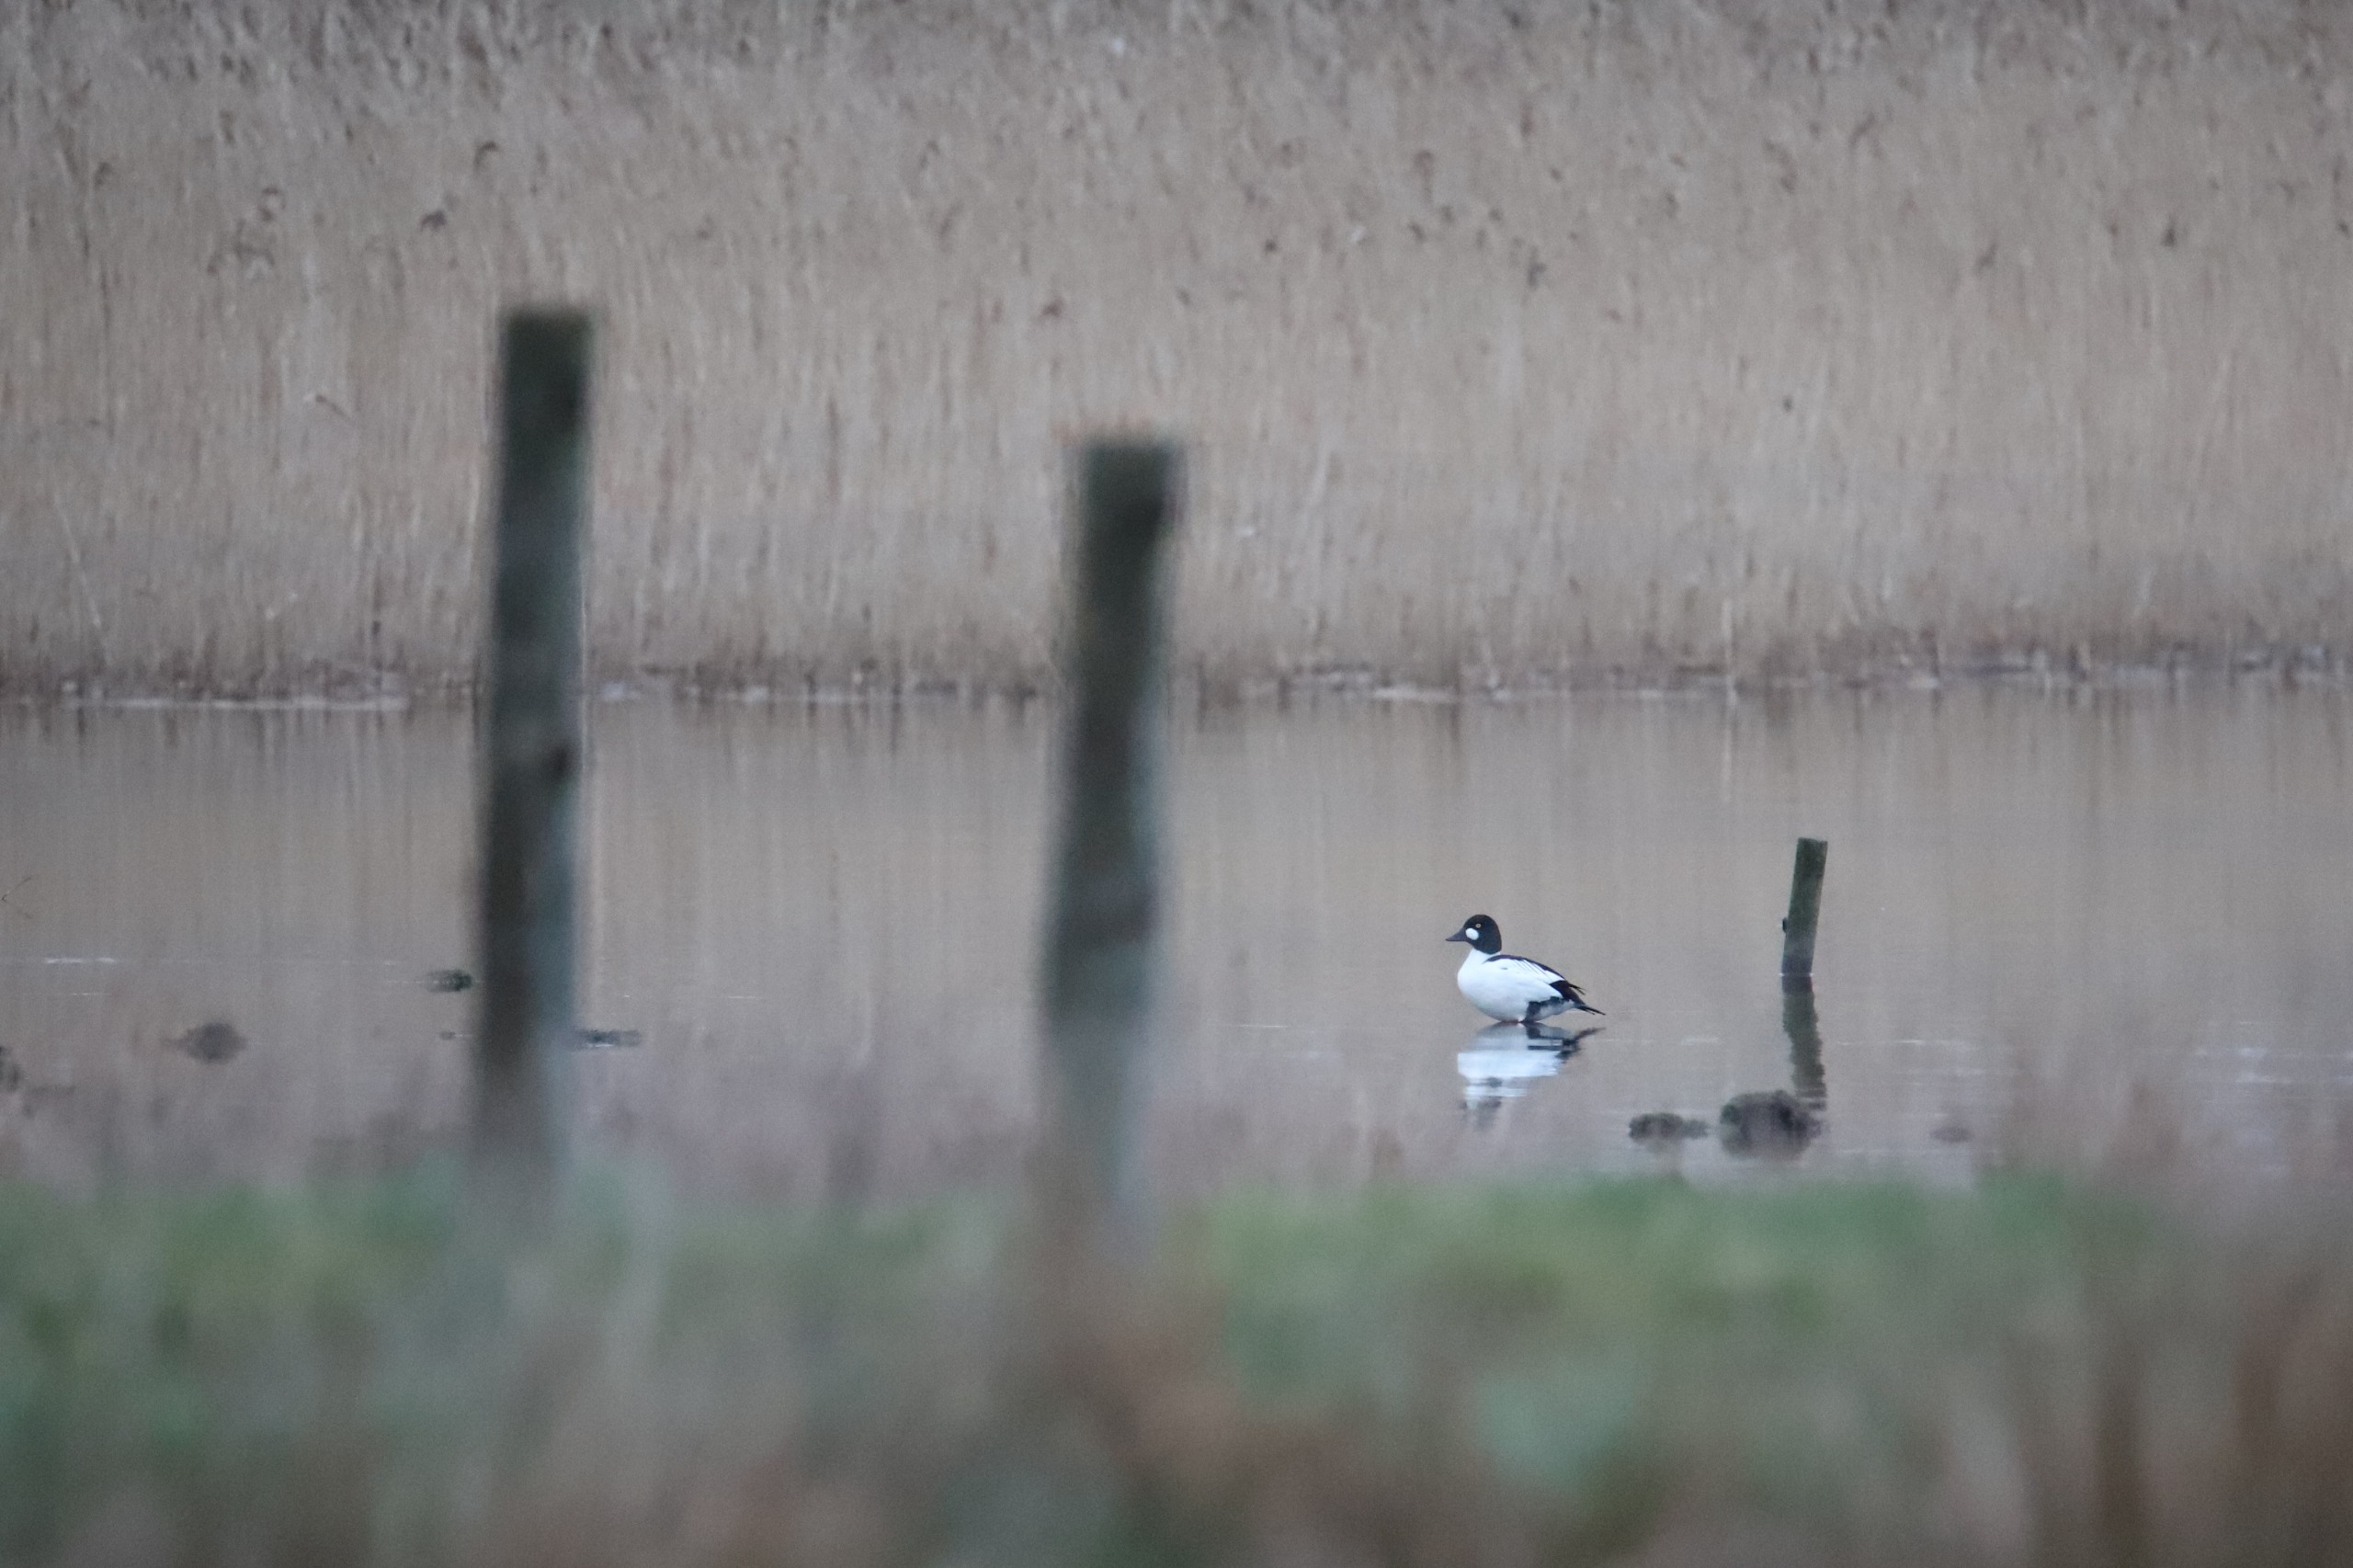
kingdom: Animalia
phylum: Chordata
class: Aves
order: Anseriformes
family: Anatidae
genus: Bucephala
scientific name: Bucephala clangula
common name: Hvinand
